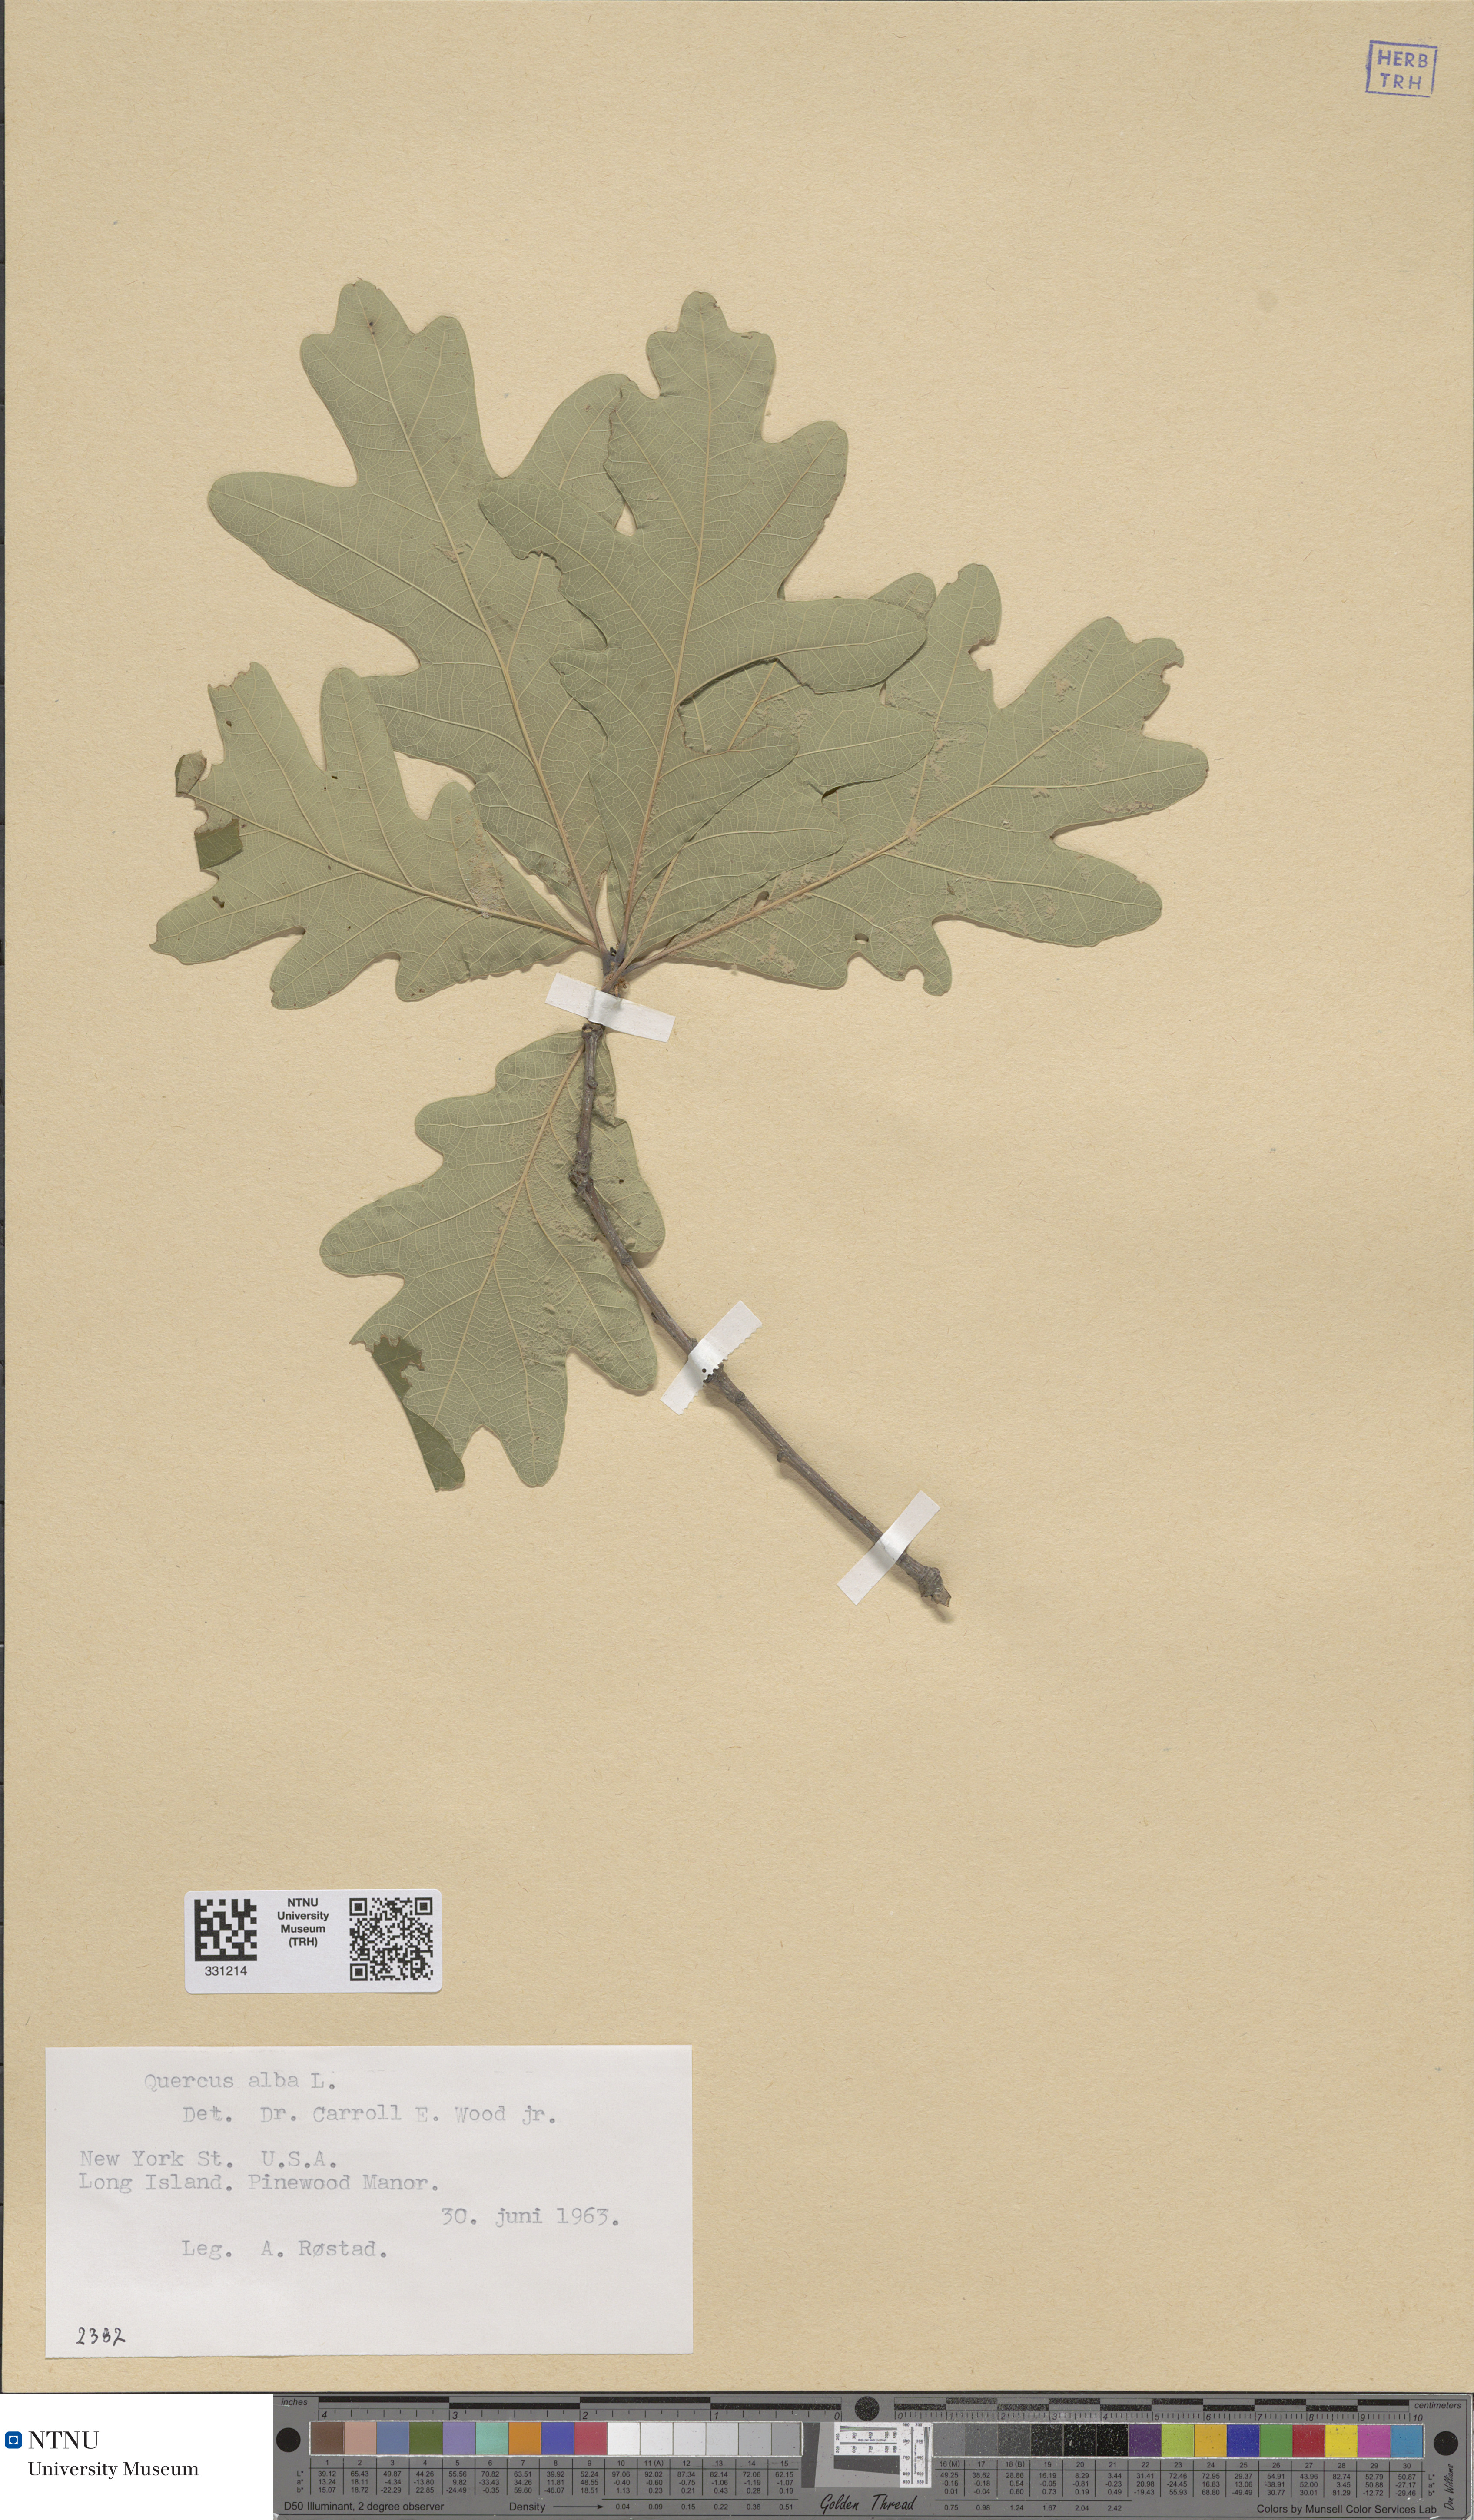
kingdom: Plantae
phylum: Tracheophyta
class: Magnoliopsida
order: Fagales
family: Fagaceae
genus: Quercus
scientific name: Quercus alba
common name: White oak
